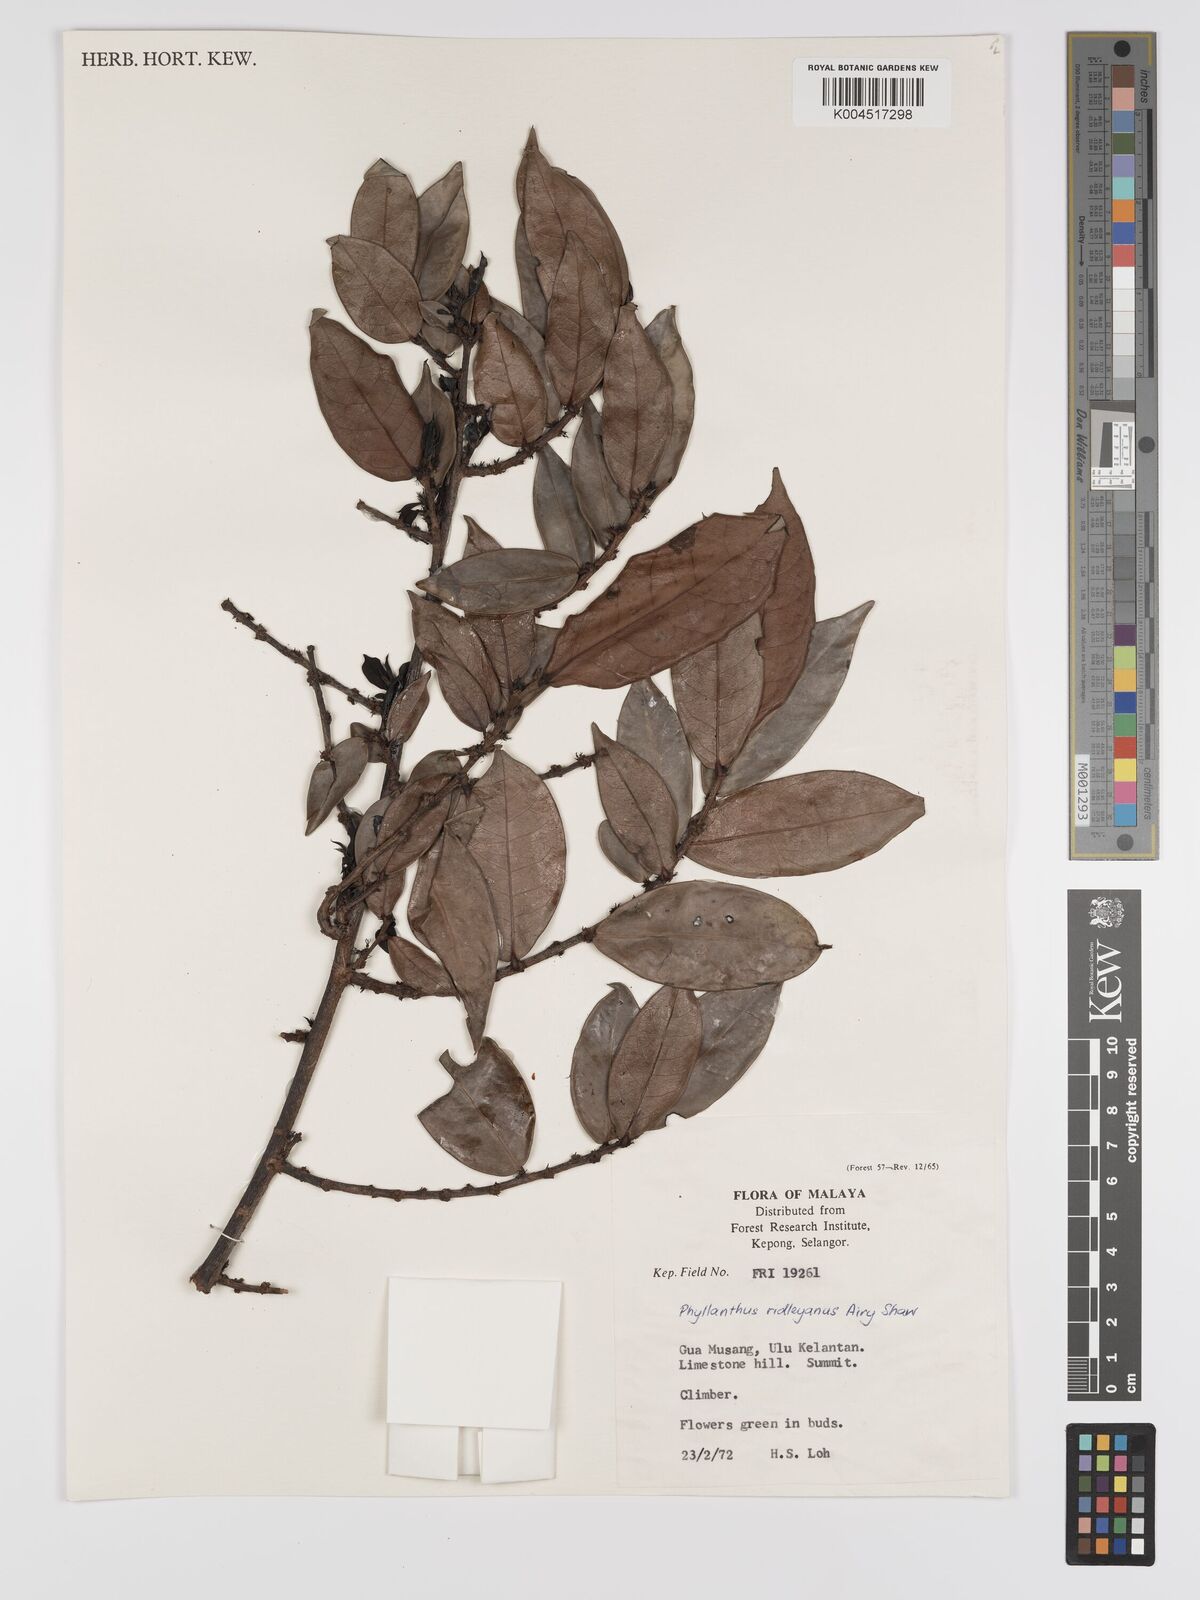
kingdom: Plantae
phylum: Tracheophyta
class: Magnoliopsida
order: Malpighiales
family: Phyllanthaceae
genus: Phyllanthus
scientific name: Phyllanthus ridleyanus
